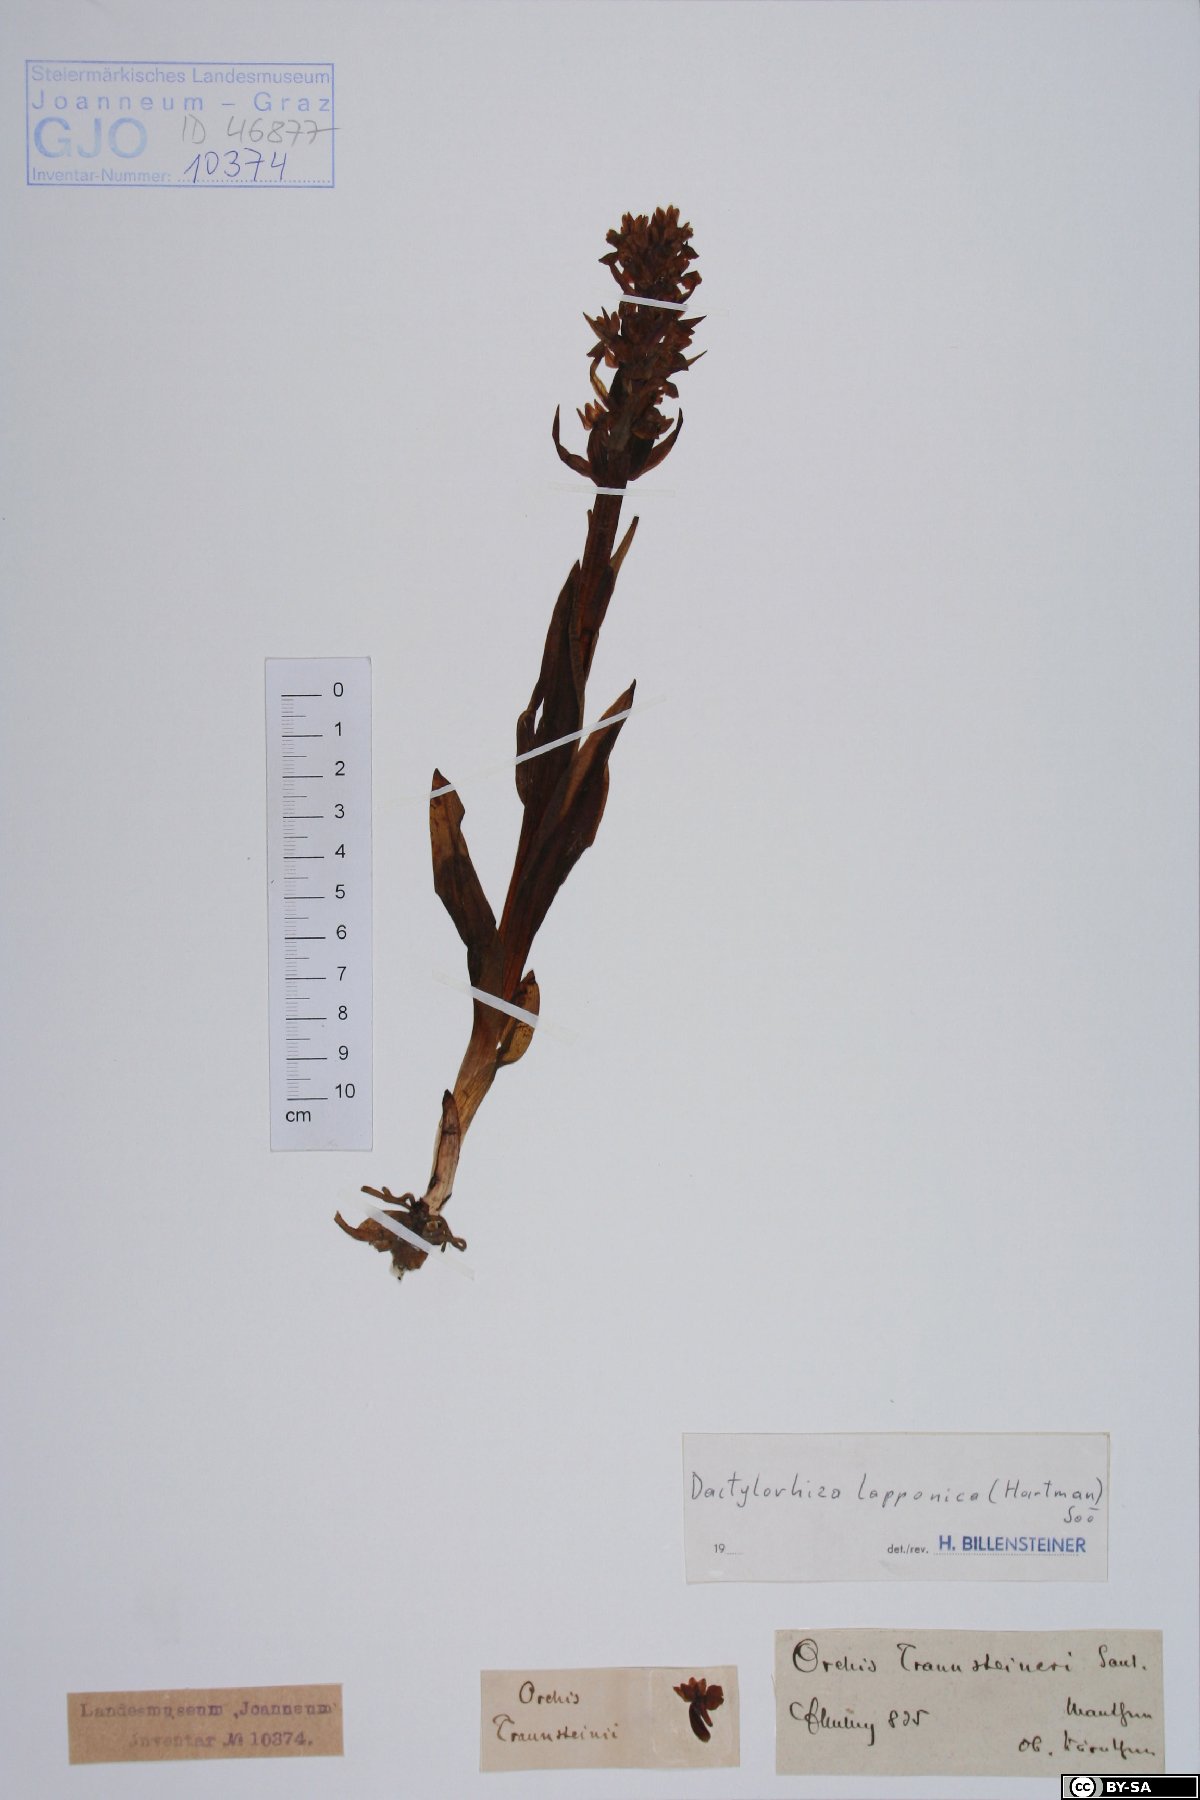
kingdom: Plantae
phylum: Tracheophyta
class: Liliopsida
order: Asparagales
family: Orchidaceae
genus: Dactylorhiza
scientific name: Dactylorhiza majalis
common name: Marsh orchid
